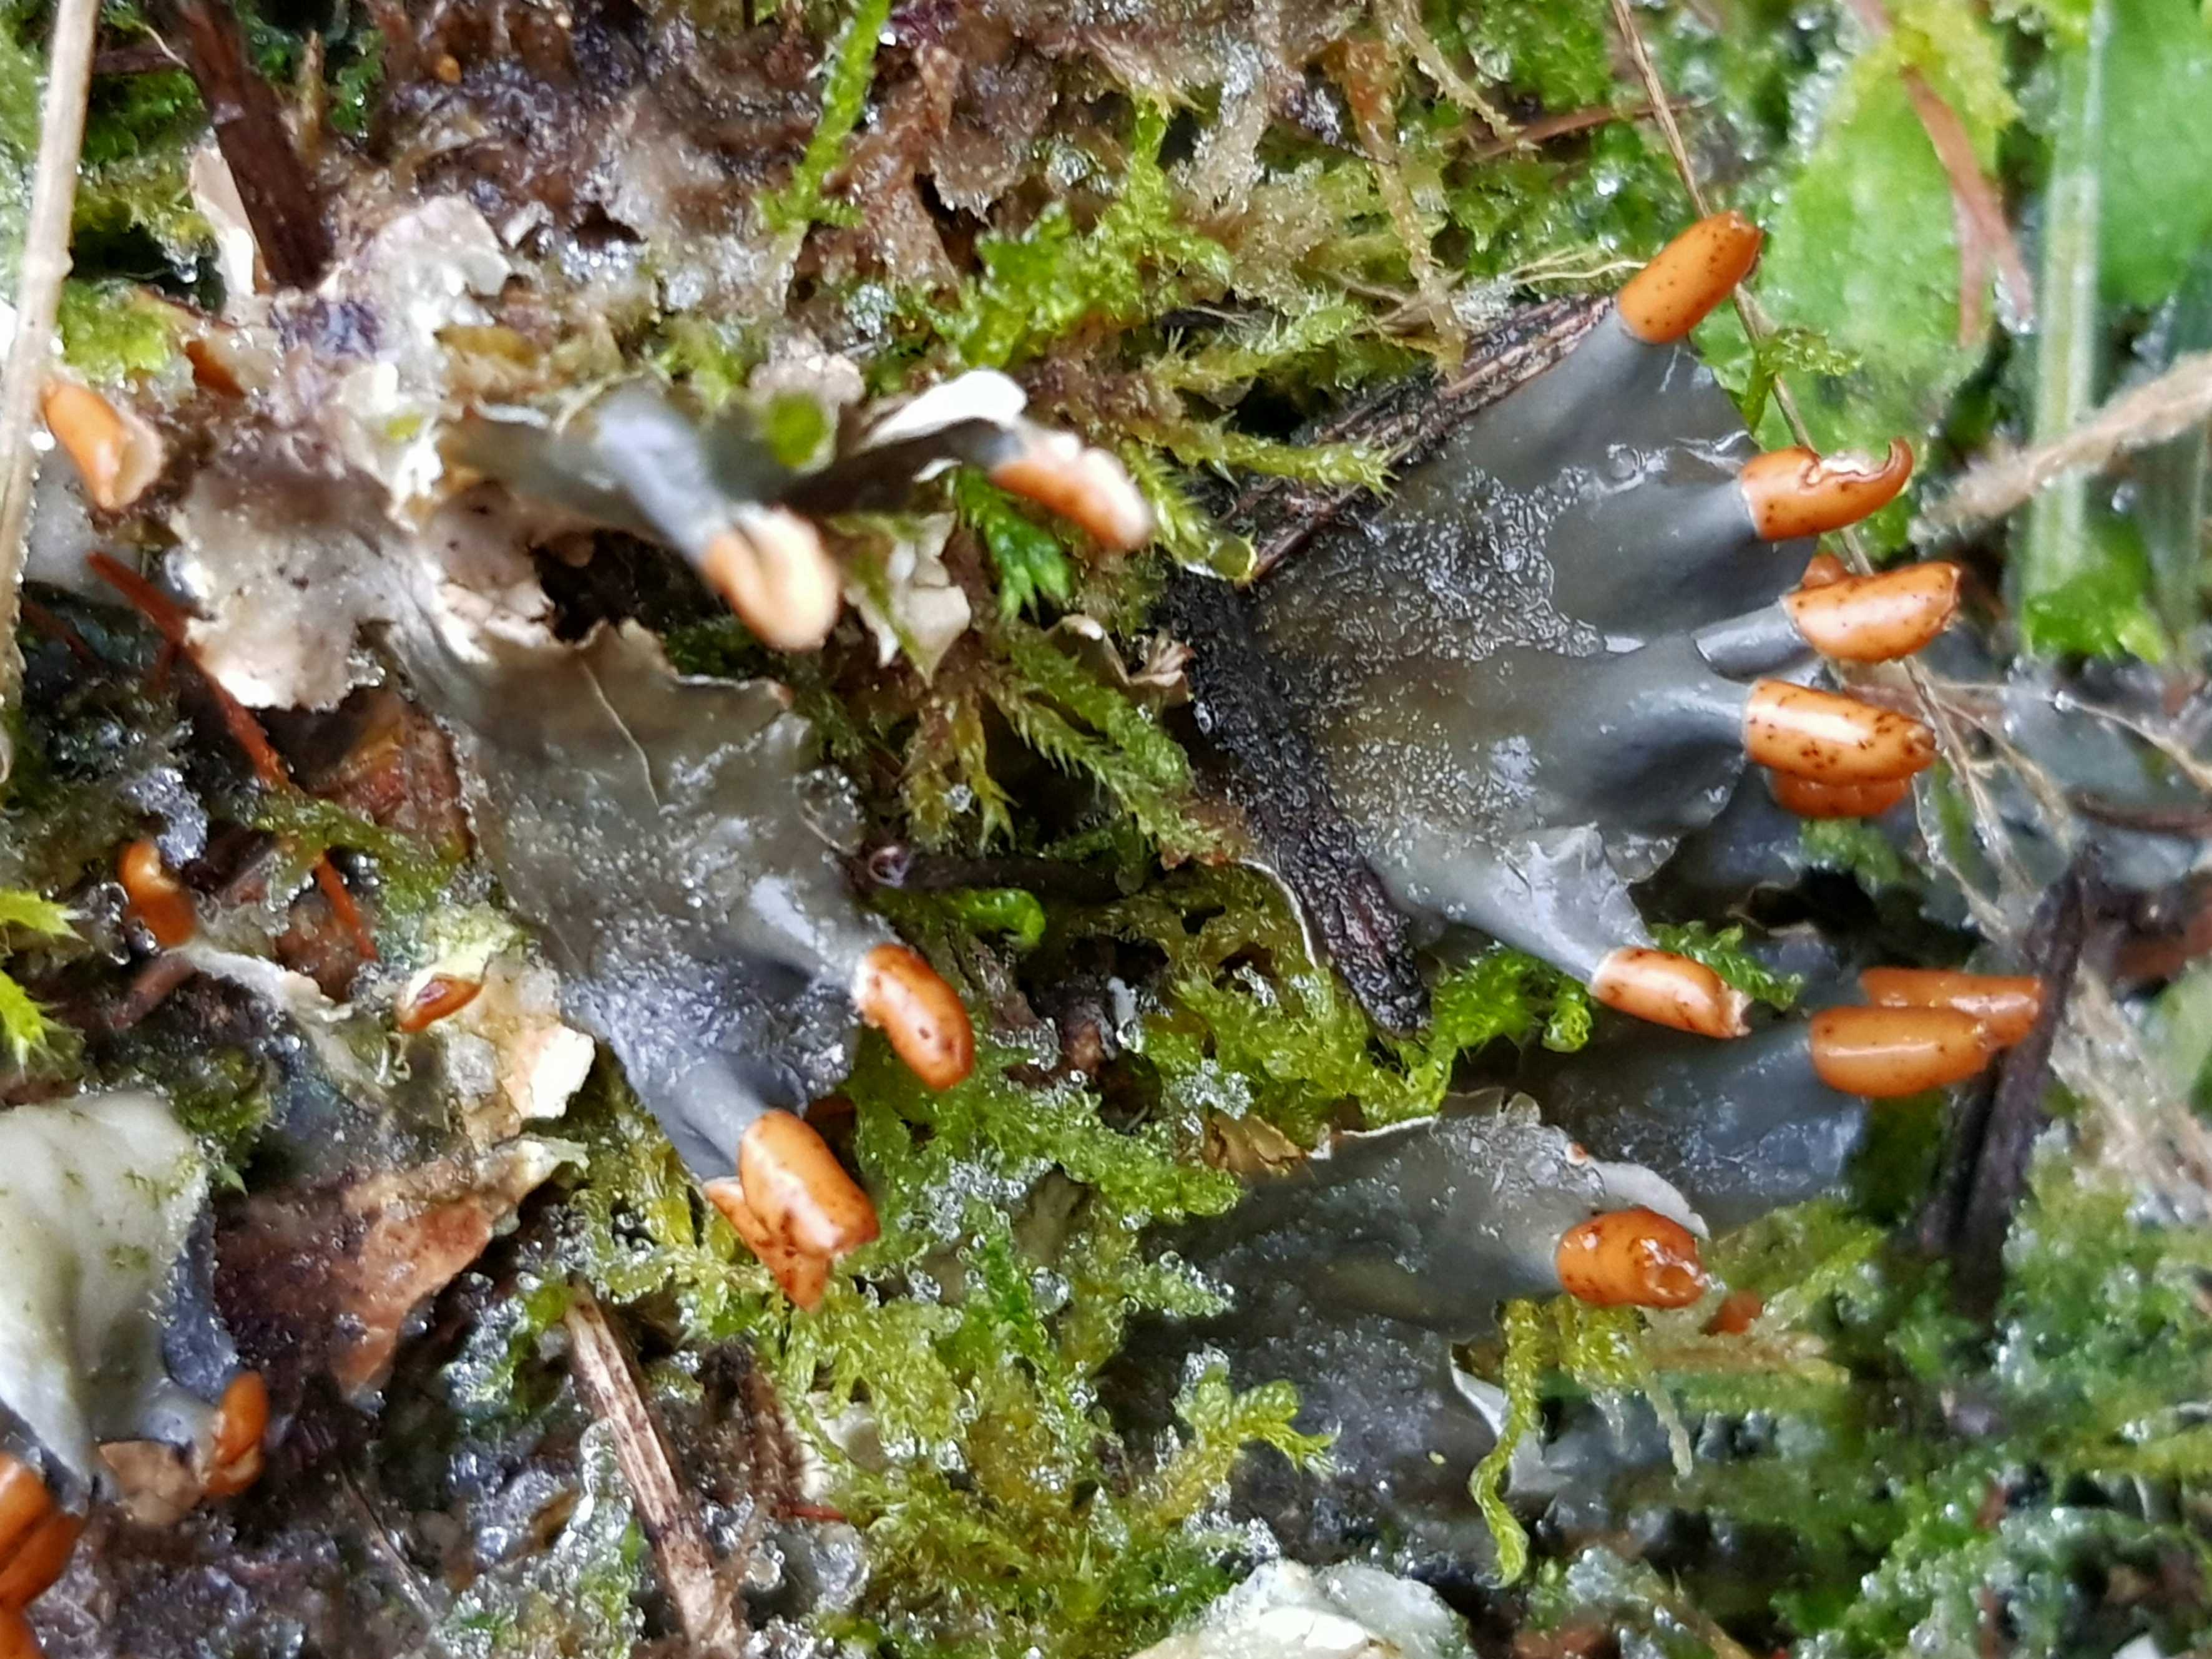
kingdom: Fungi
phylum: Ascomycota
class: Lecanoromycetes
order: Peltigerales
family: Peltigeraceae
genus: Peltigera
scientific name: Peltigera hymenina
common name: hinde-skjoldlav
